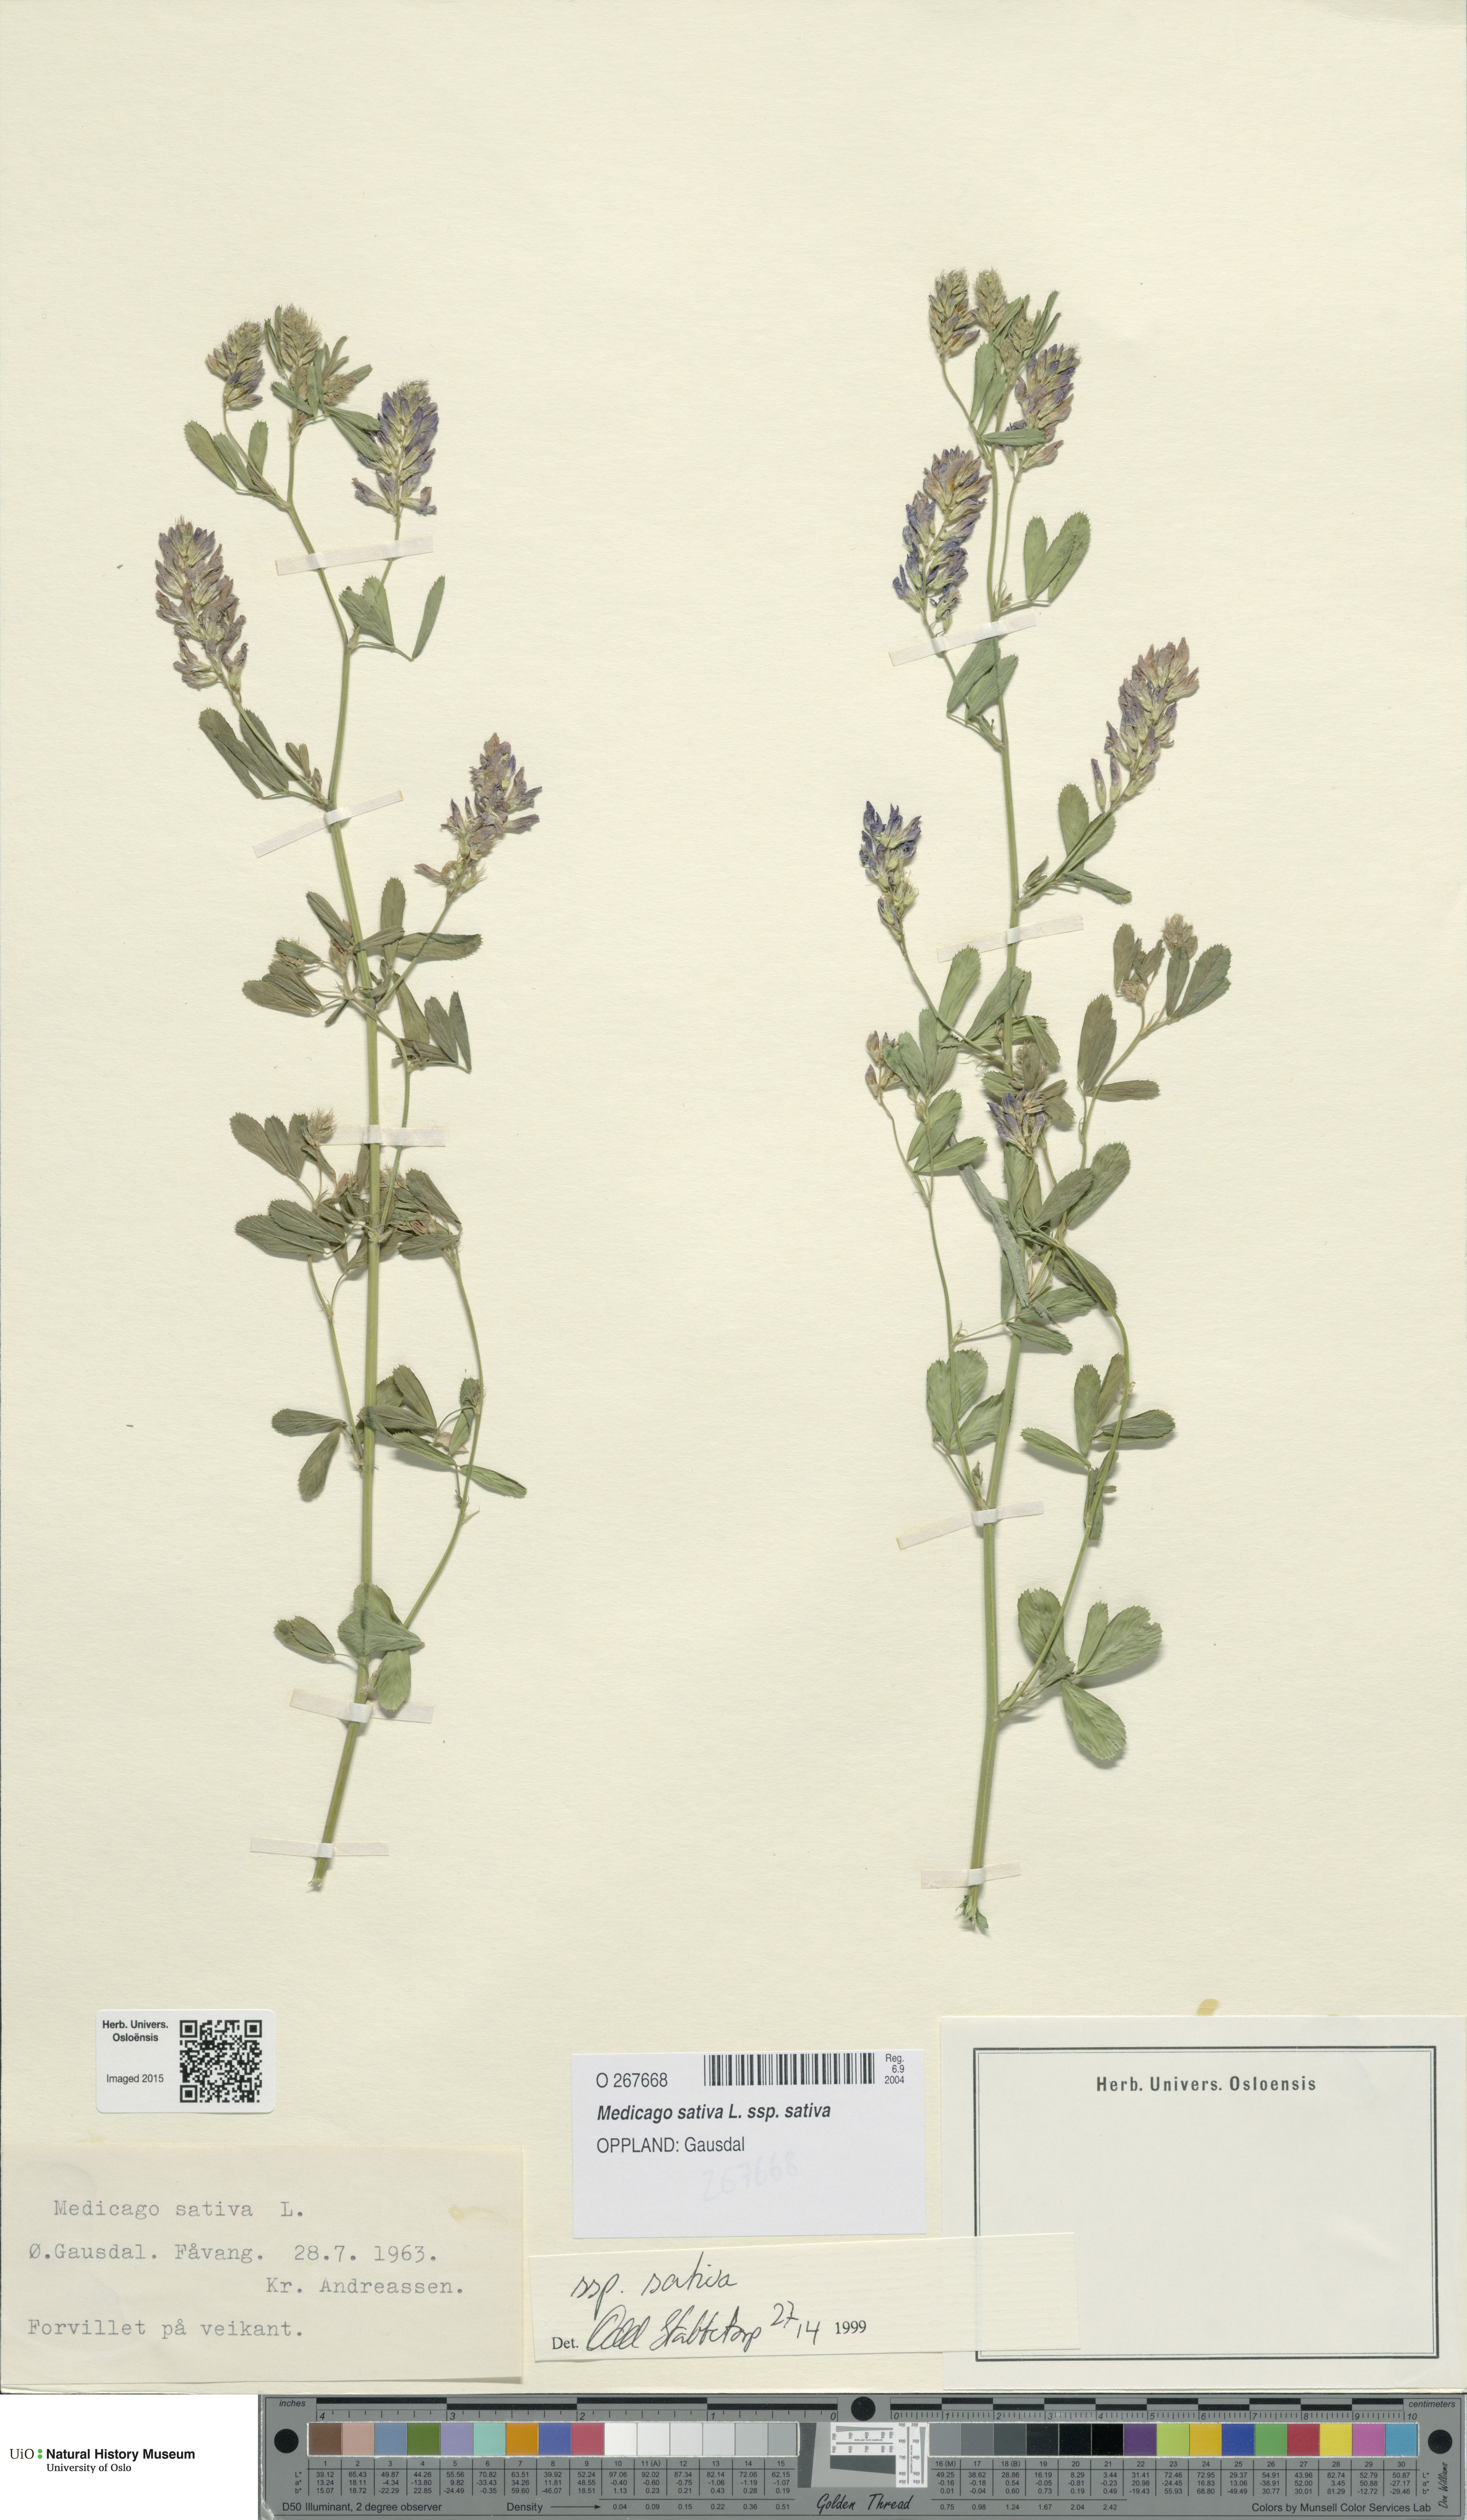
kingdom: Plantae
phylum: Tracheophyta
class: Magnoliopsida
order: Fabales
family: Fabaceae
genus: Medicago
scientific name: Medicago sativa
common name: Alfalfa
